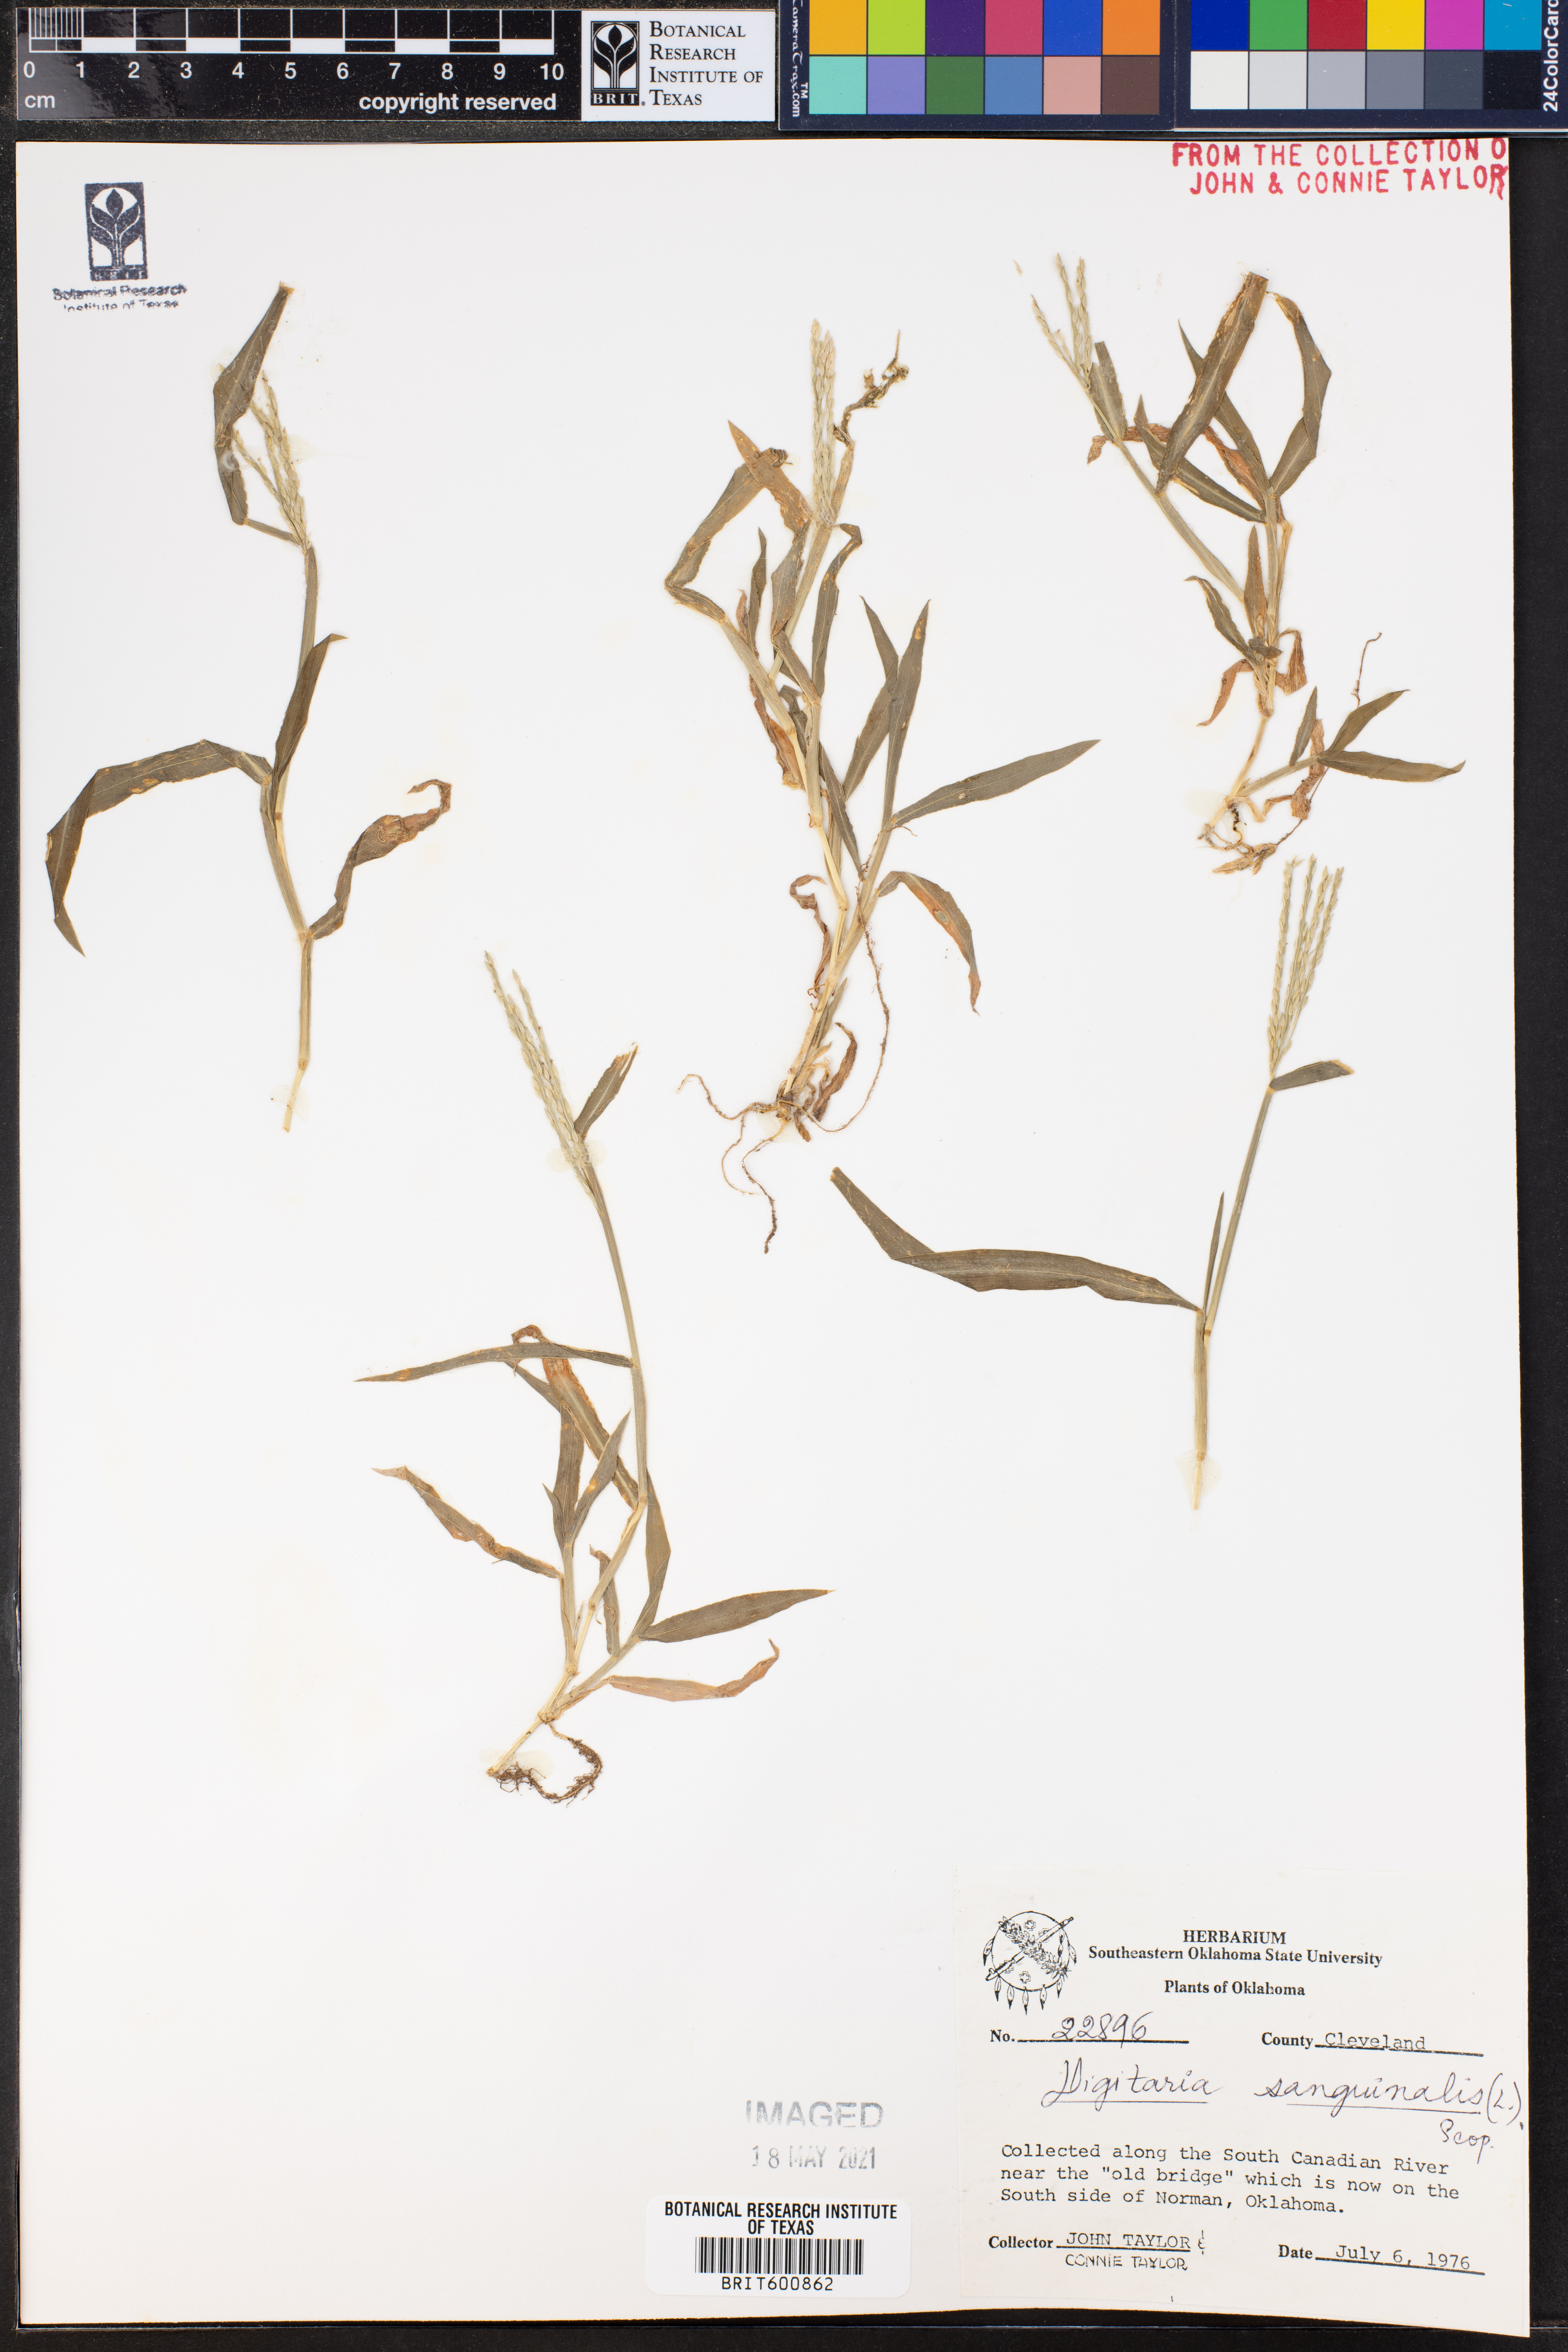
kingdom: Plantae
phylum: Tracheophyta
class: Liliopsida
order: Poales
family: Poaceae
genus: Digitaria
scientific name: Digitaria sanguinalis
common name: Hairy crabgrass
